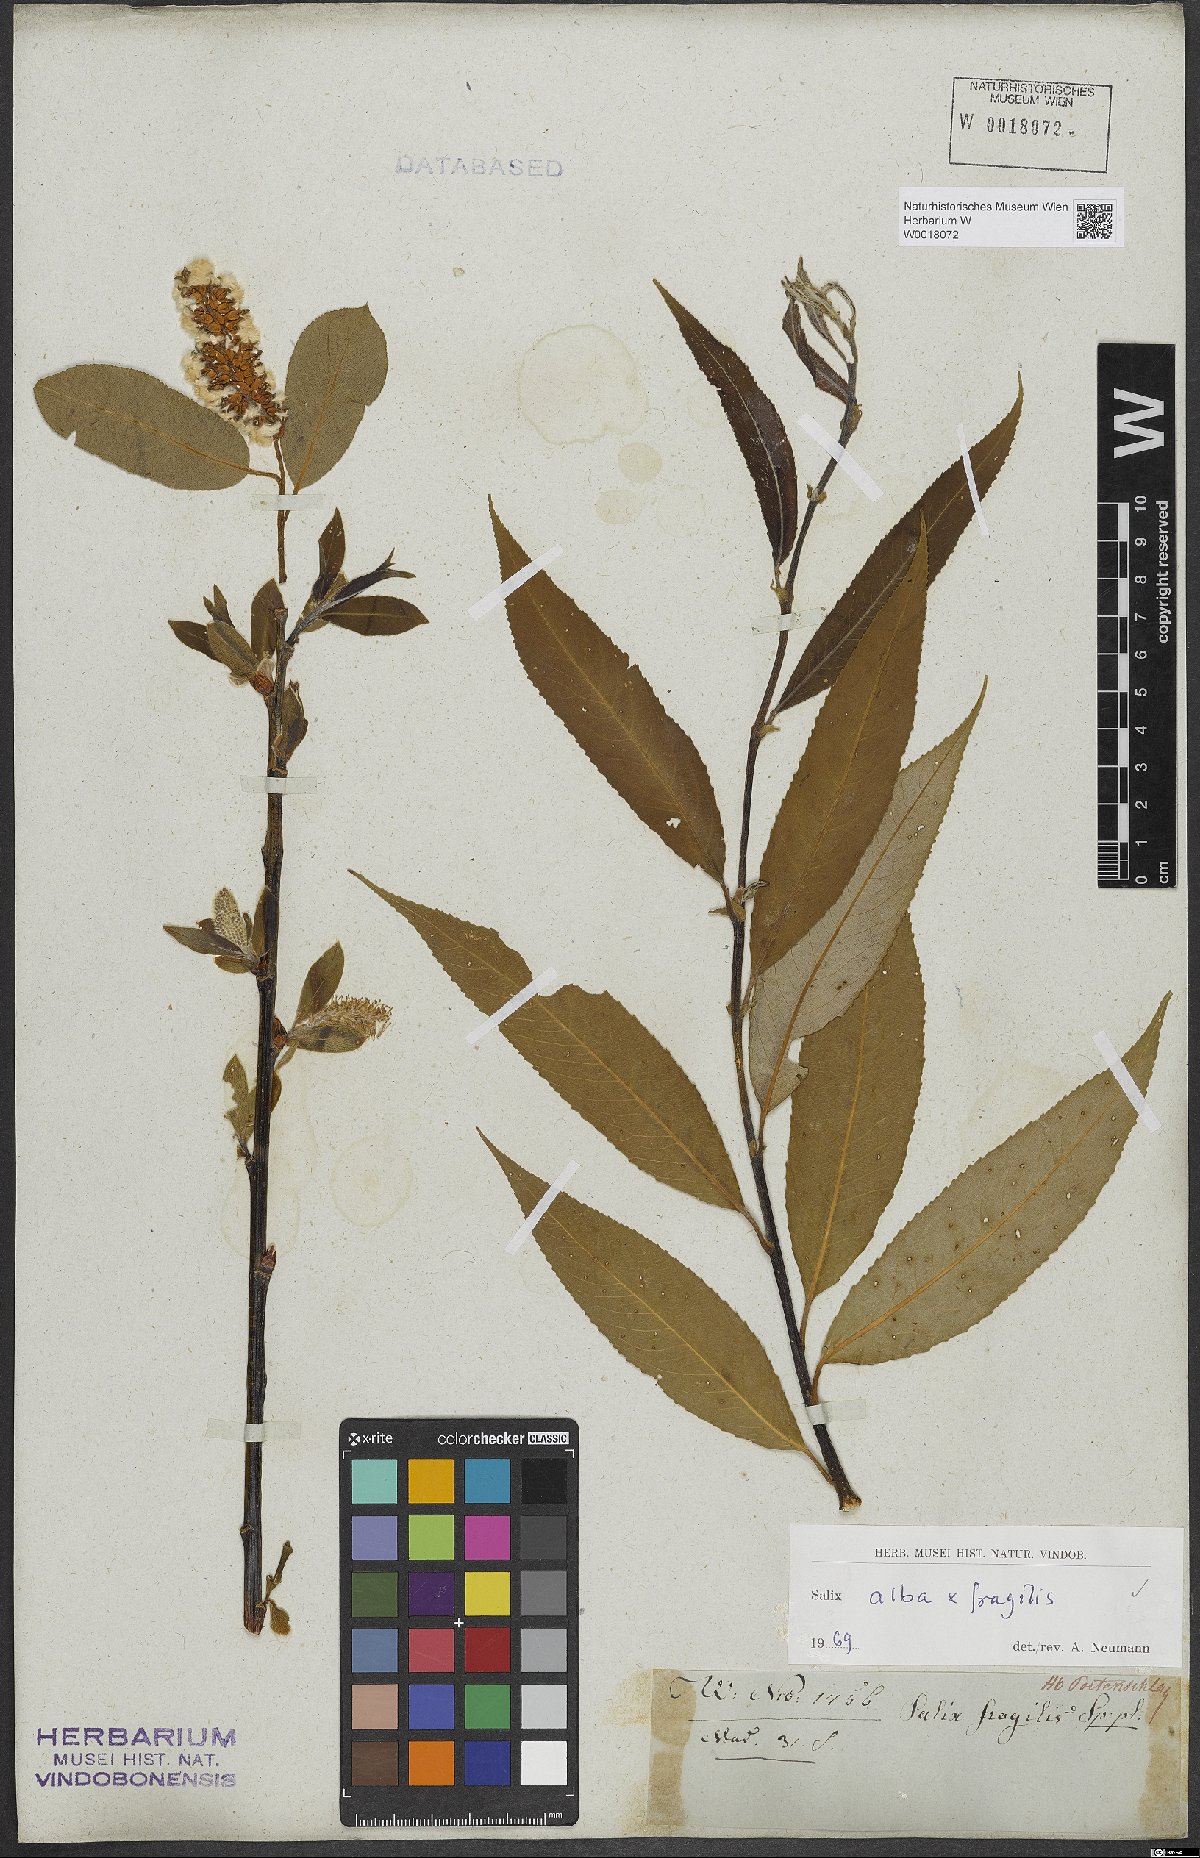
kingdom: Plantae
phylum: Tracheophyta
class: Magnoliopsida
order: Malpighiales
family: Salicaceae
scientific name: Salicaceae
